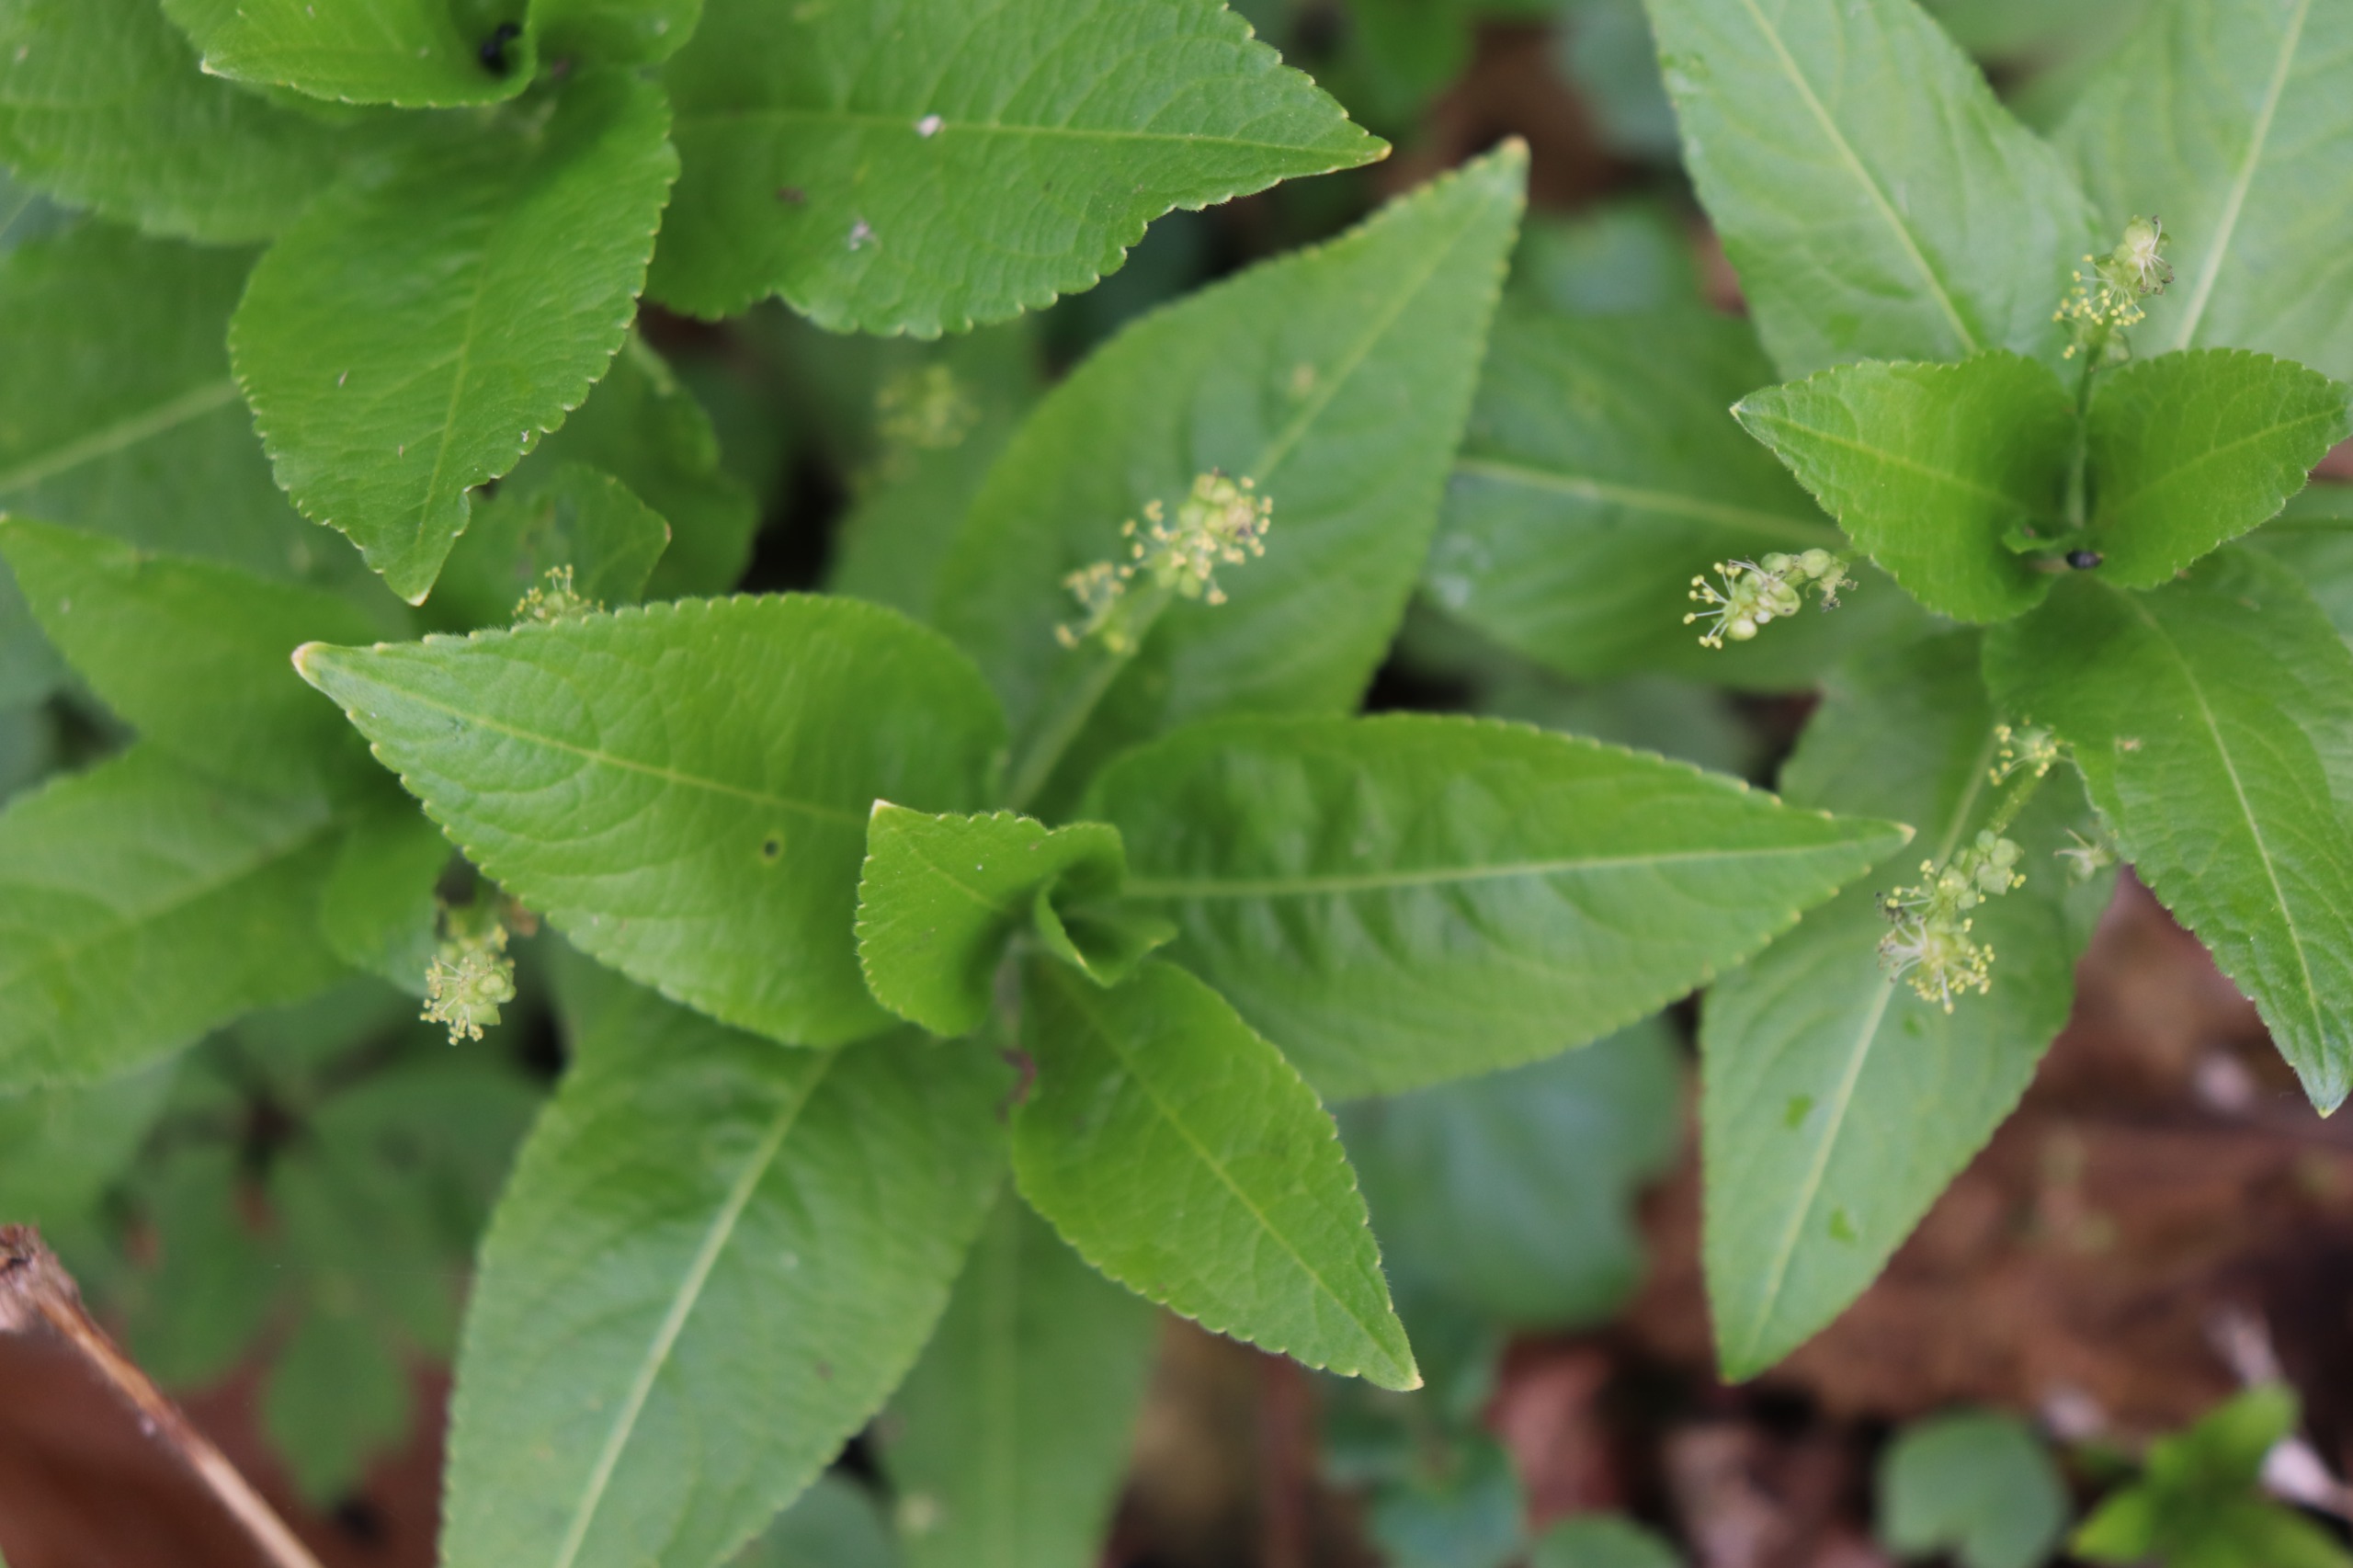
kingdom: Plantae
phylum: Tracheophyta
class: Magnoliopsida
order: Malpighiales
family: Euphorbiaceae
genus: Mercurialis
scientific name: Mercurialis perennis
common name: Almindelig bingelurt
